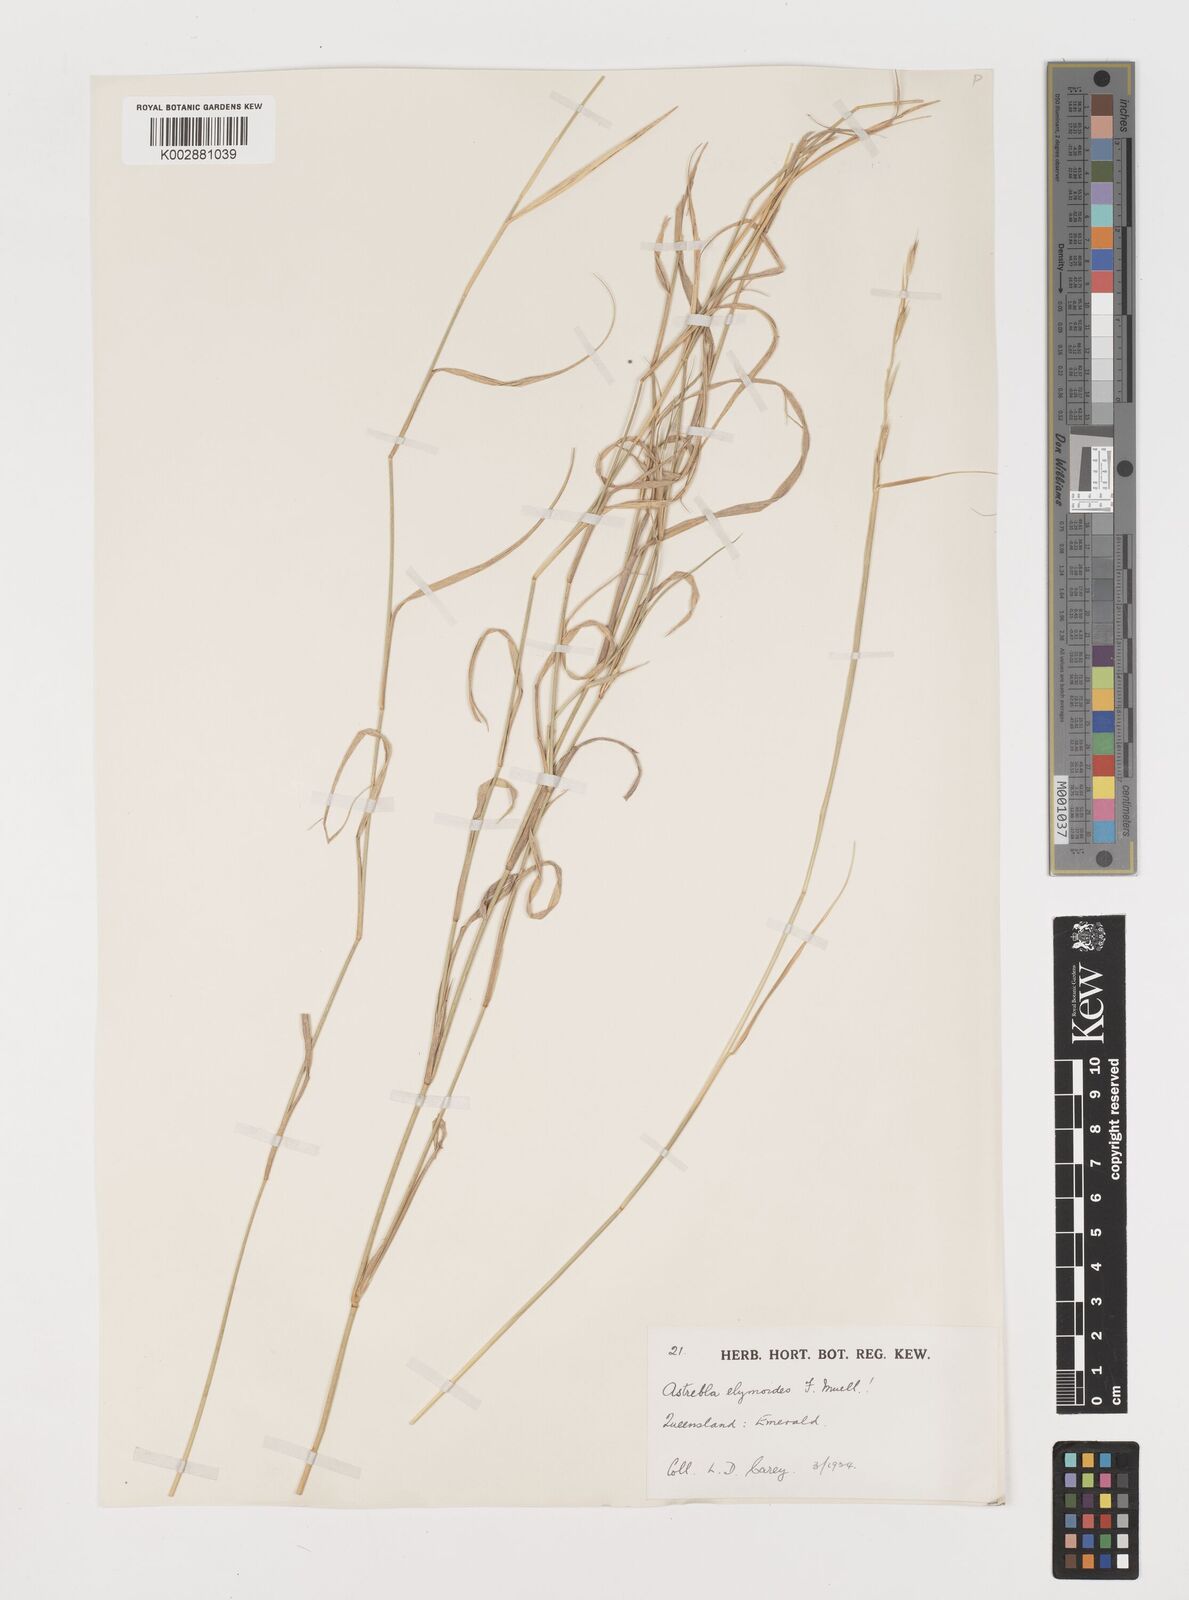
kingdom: Plantae
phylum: Tracheophyta
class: Liliopsida
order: Poales
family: Poaceae
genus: Astrebla
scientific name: Astrebla elymoides
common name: Hoop mitchell grass
